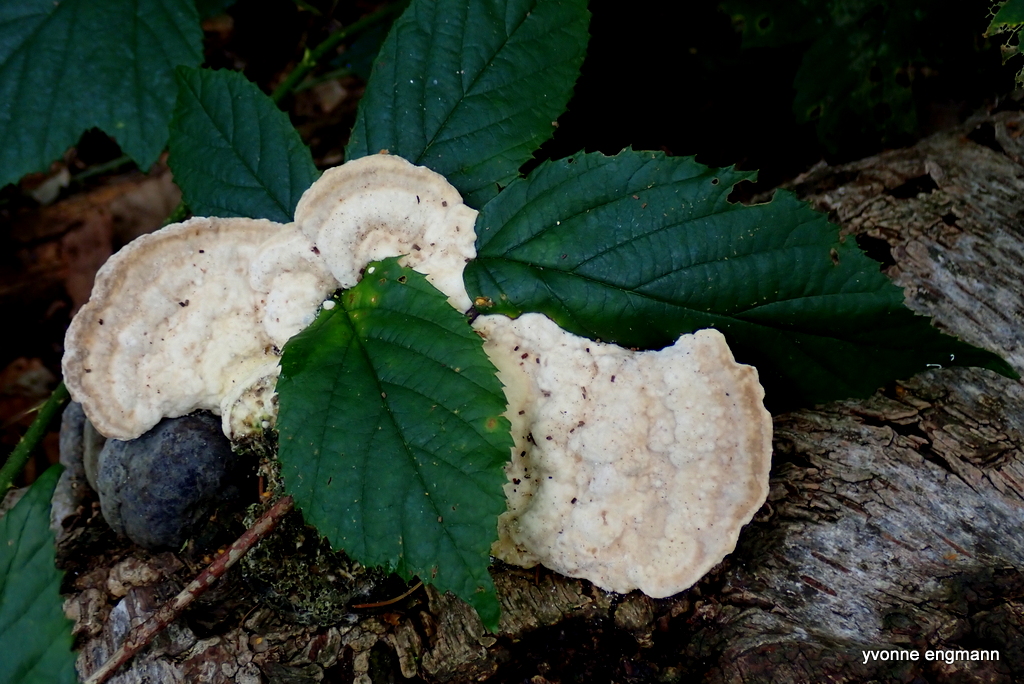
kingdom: Fungi
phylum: Basidiomycota
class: Agaricomycetes
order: Polyporales
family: Polyporaceae
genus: Trametes
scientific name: Trametes gibbosa
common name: puklet læderporesvamp
